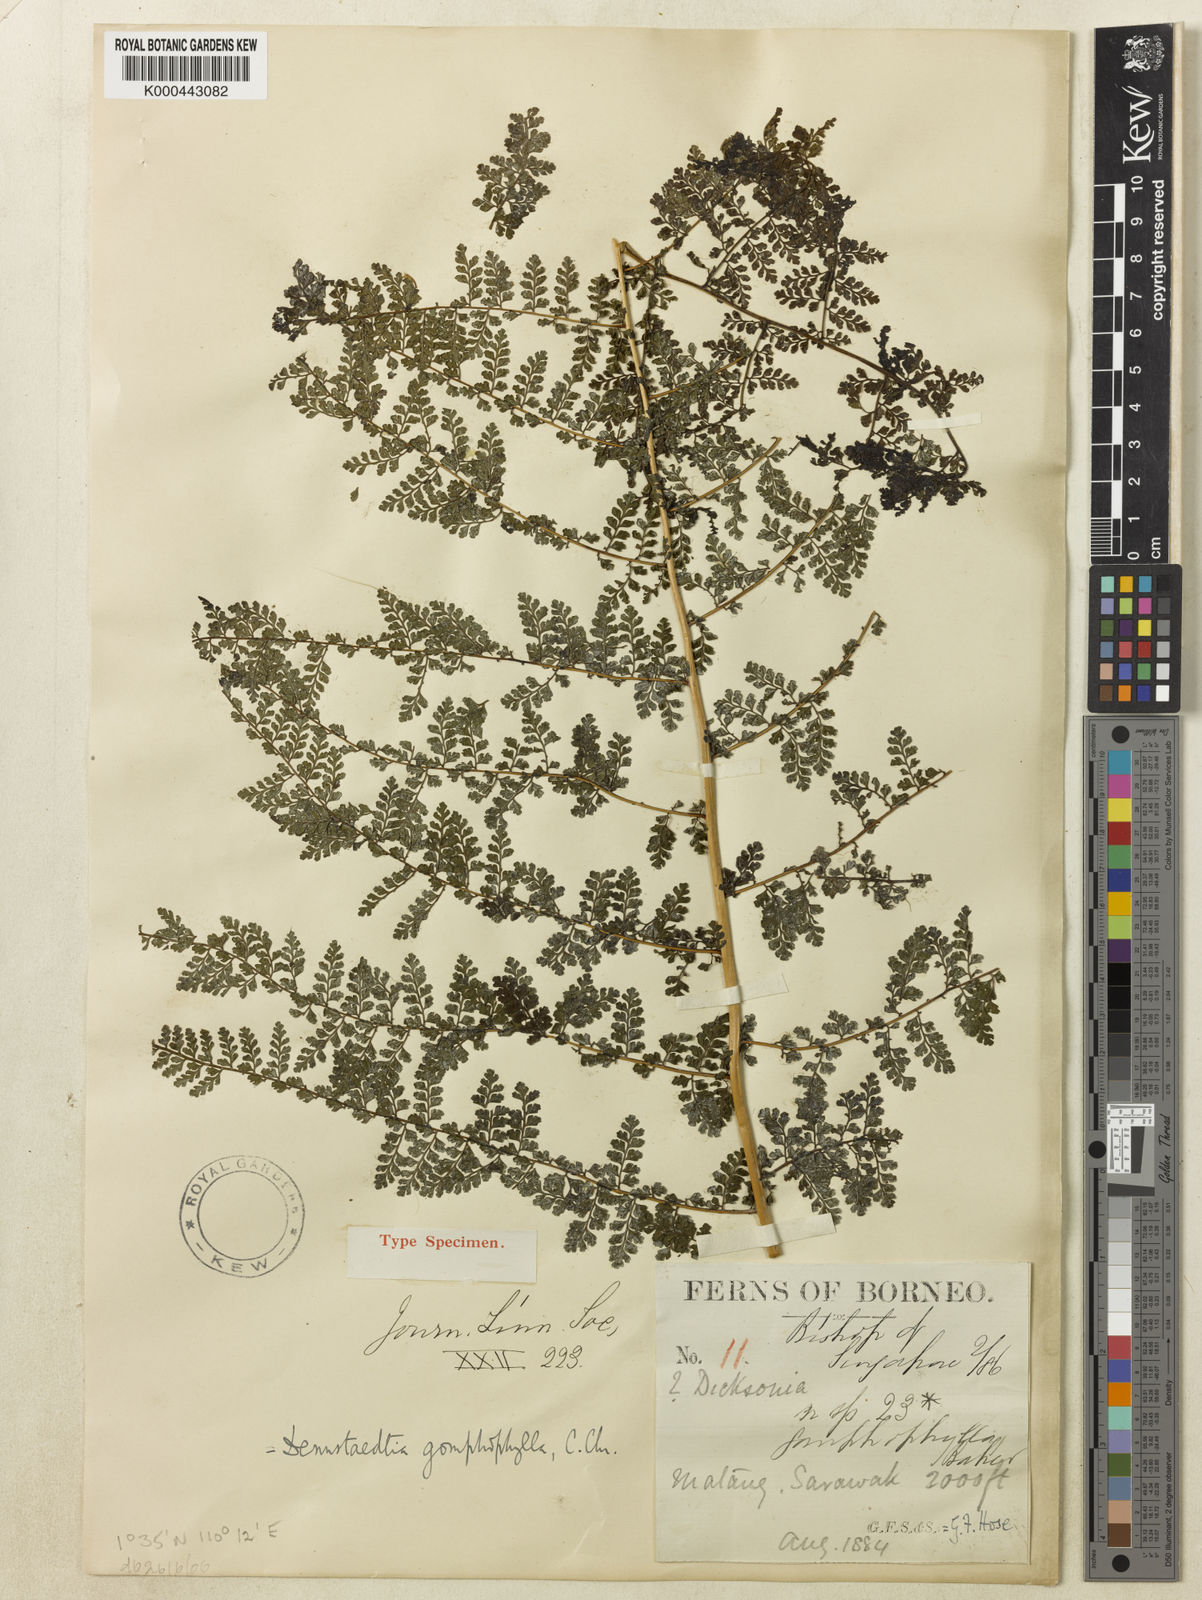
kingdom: Plantae
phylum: Tracheophyta
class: Polypodiopsida
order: Polypodiales
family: Dennstaedtiaceae
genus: Dennstaedtia
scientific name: Dennstaedtia resinifera
